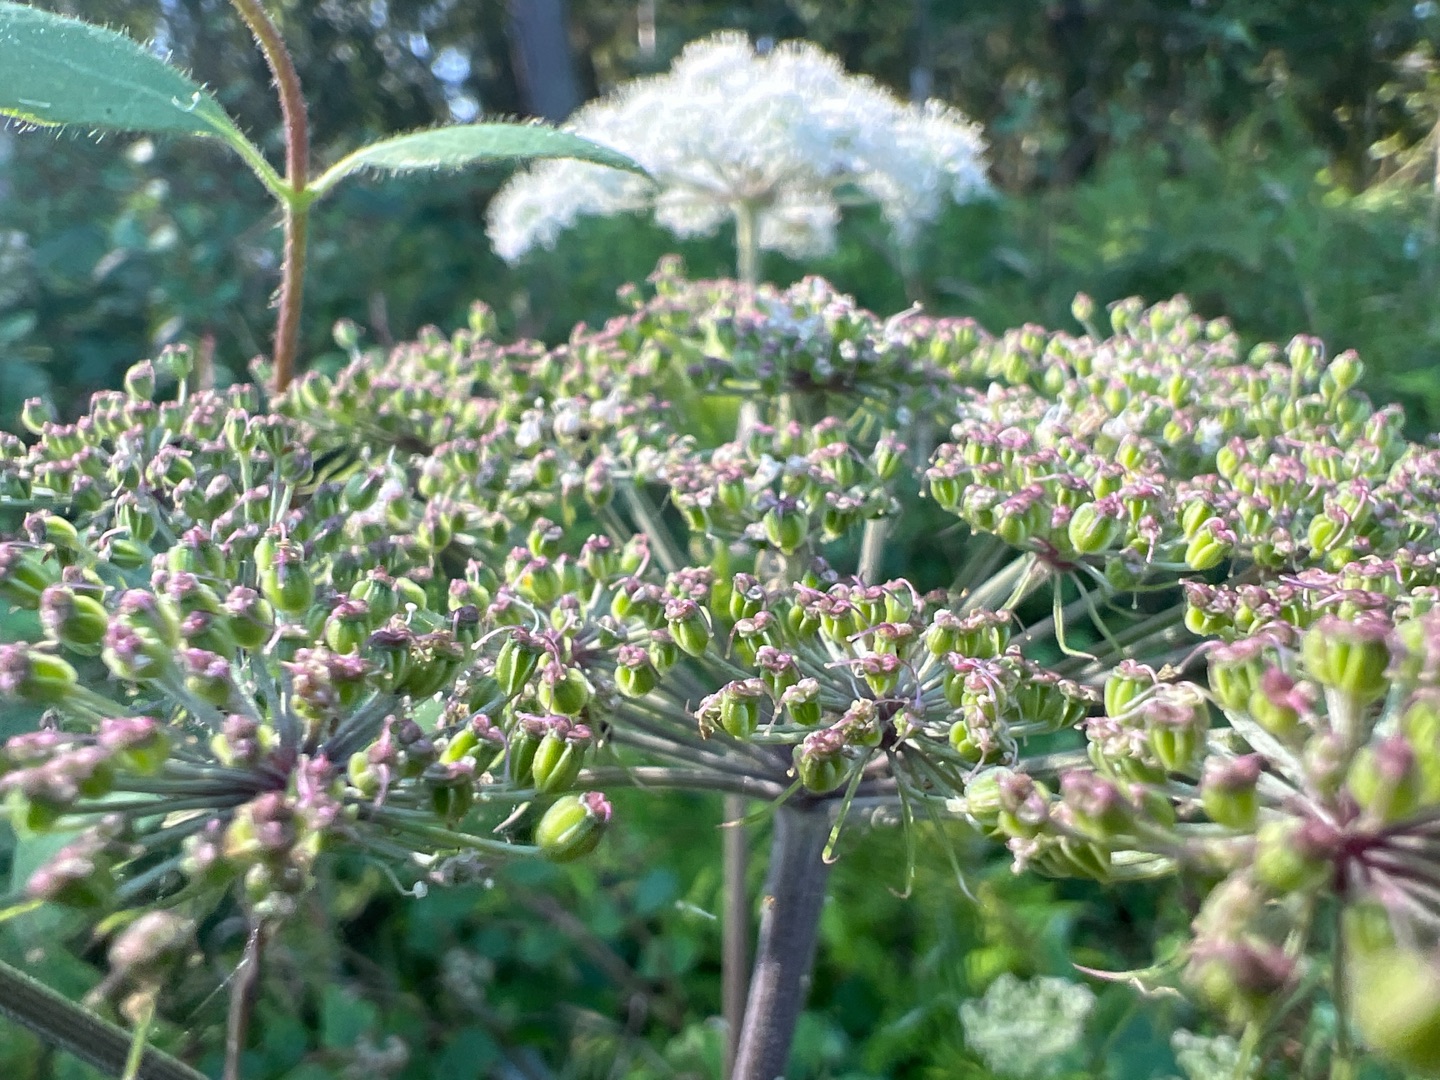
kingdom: Plantae
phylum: Tracheophyta
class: Magnoliopsida
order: Apiales
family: Apiaceae
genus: Angelica
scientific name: Angelica sylvestris
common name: Angelik
